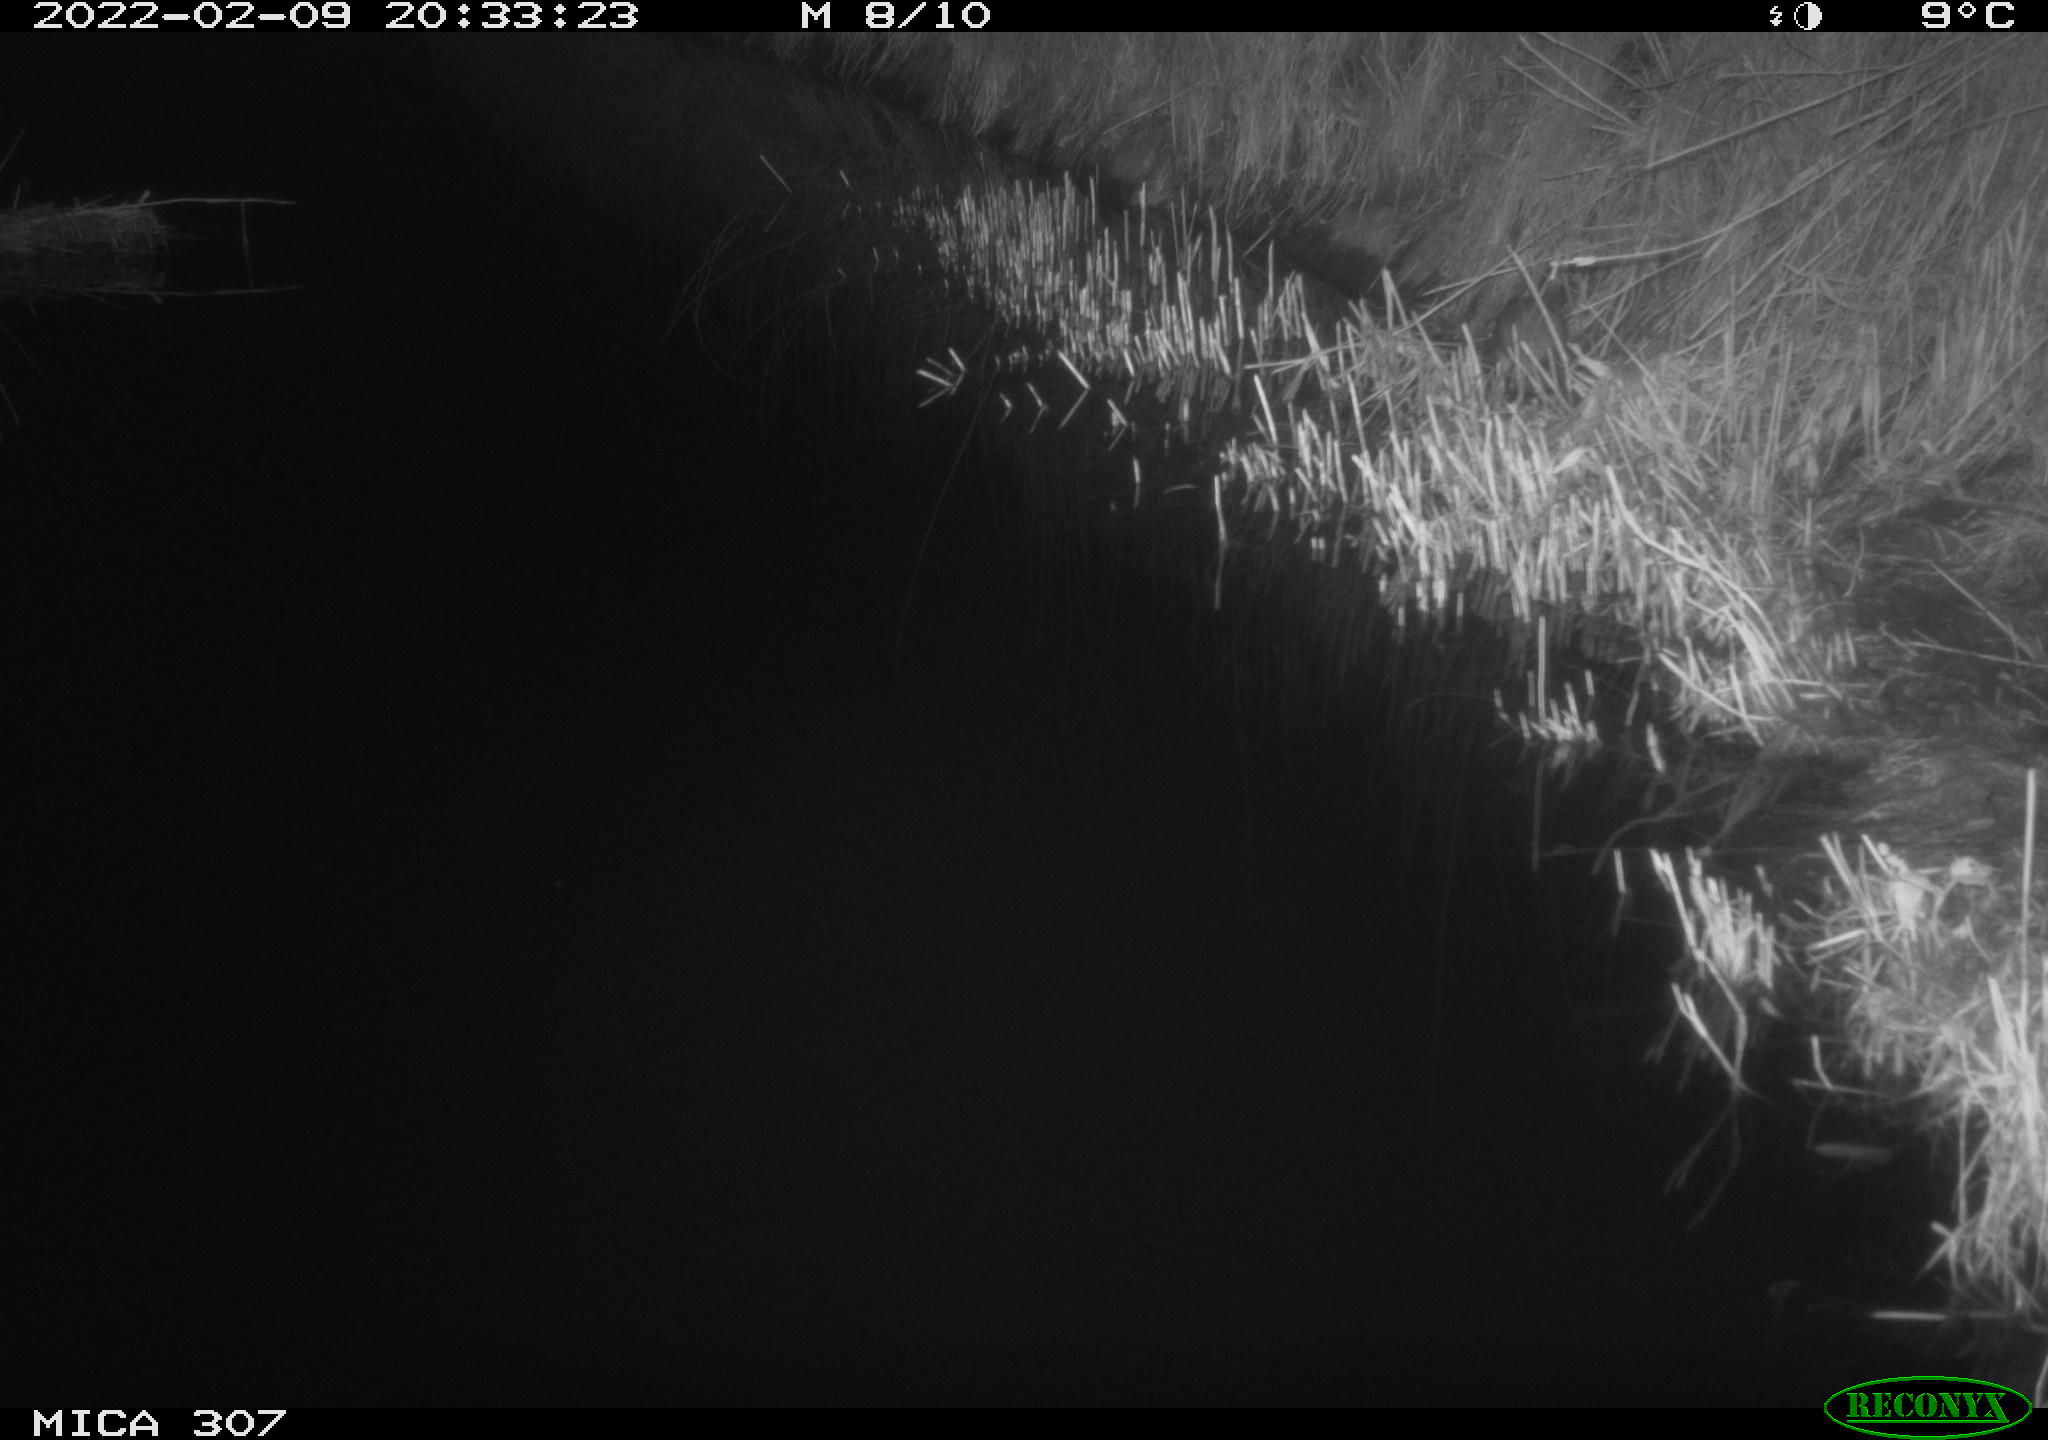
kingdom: Animalia
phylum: Chordata
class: Mammalia
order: Rodentia
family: Muridae
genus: Rattus
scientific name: Rattus norvegicus
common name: Brown rat
